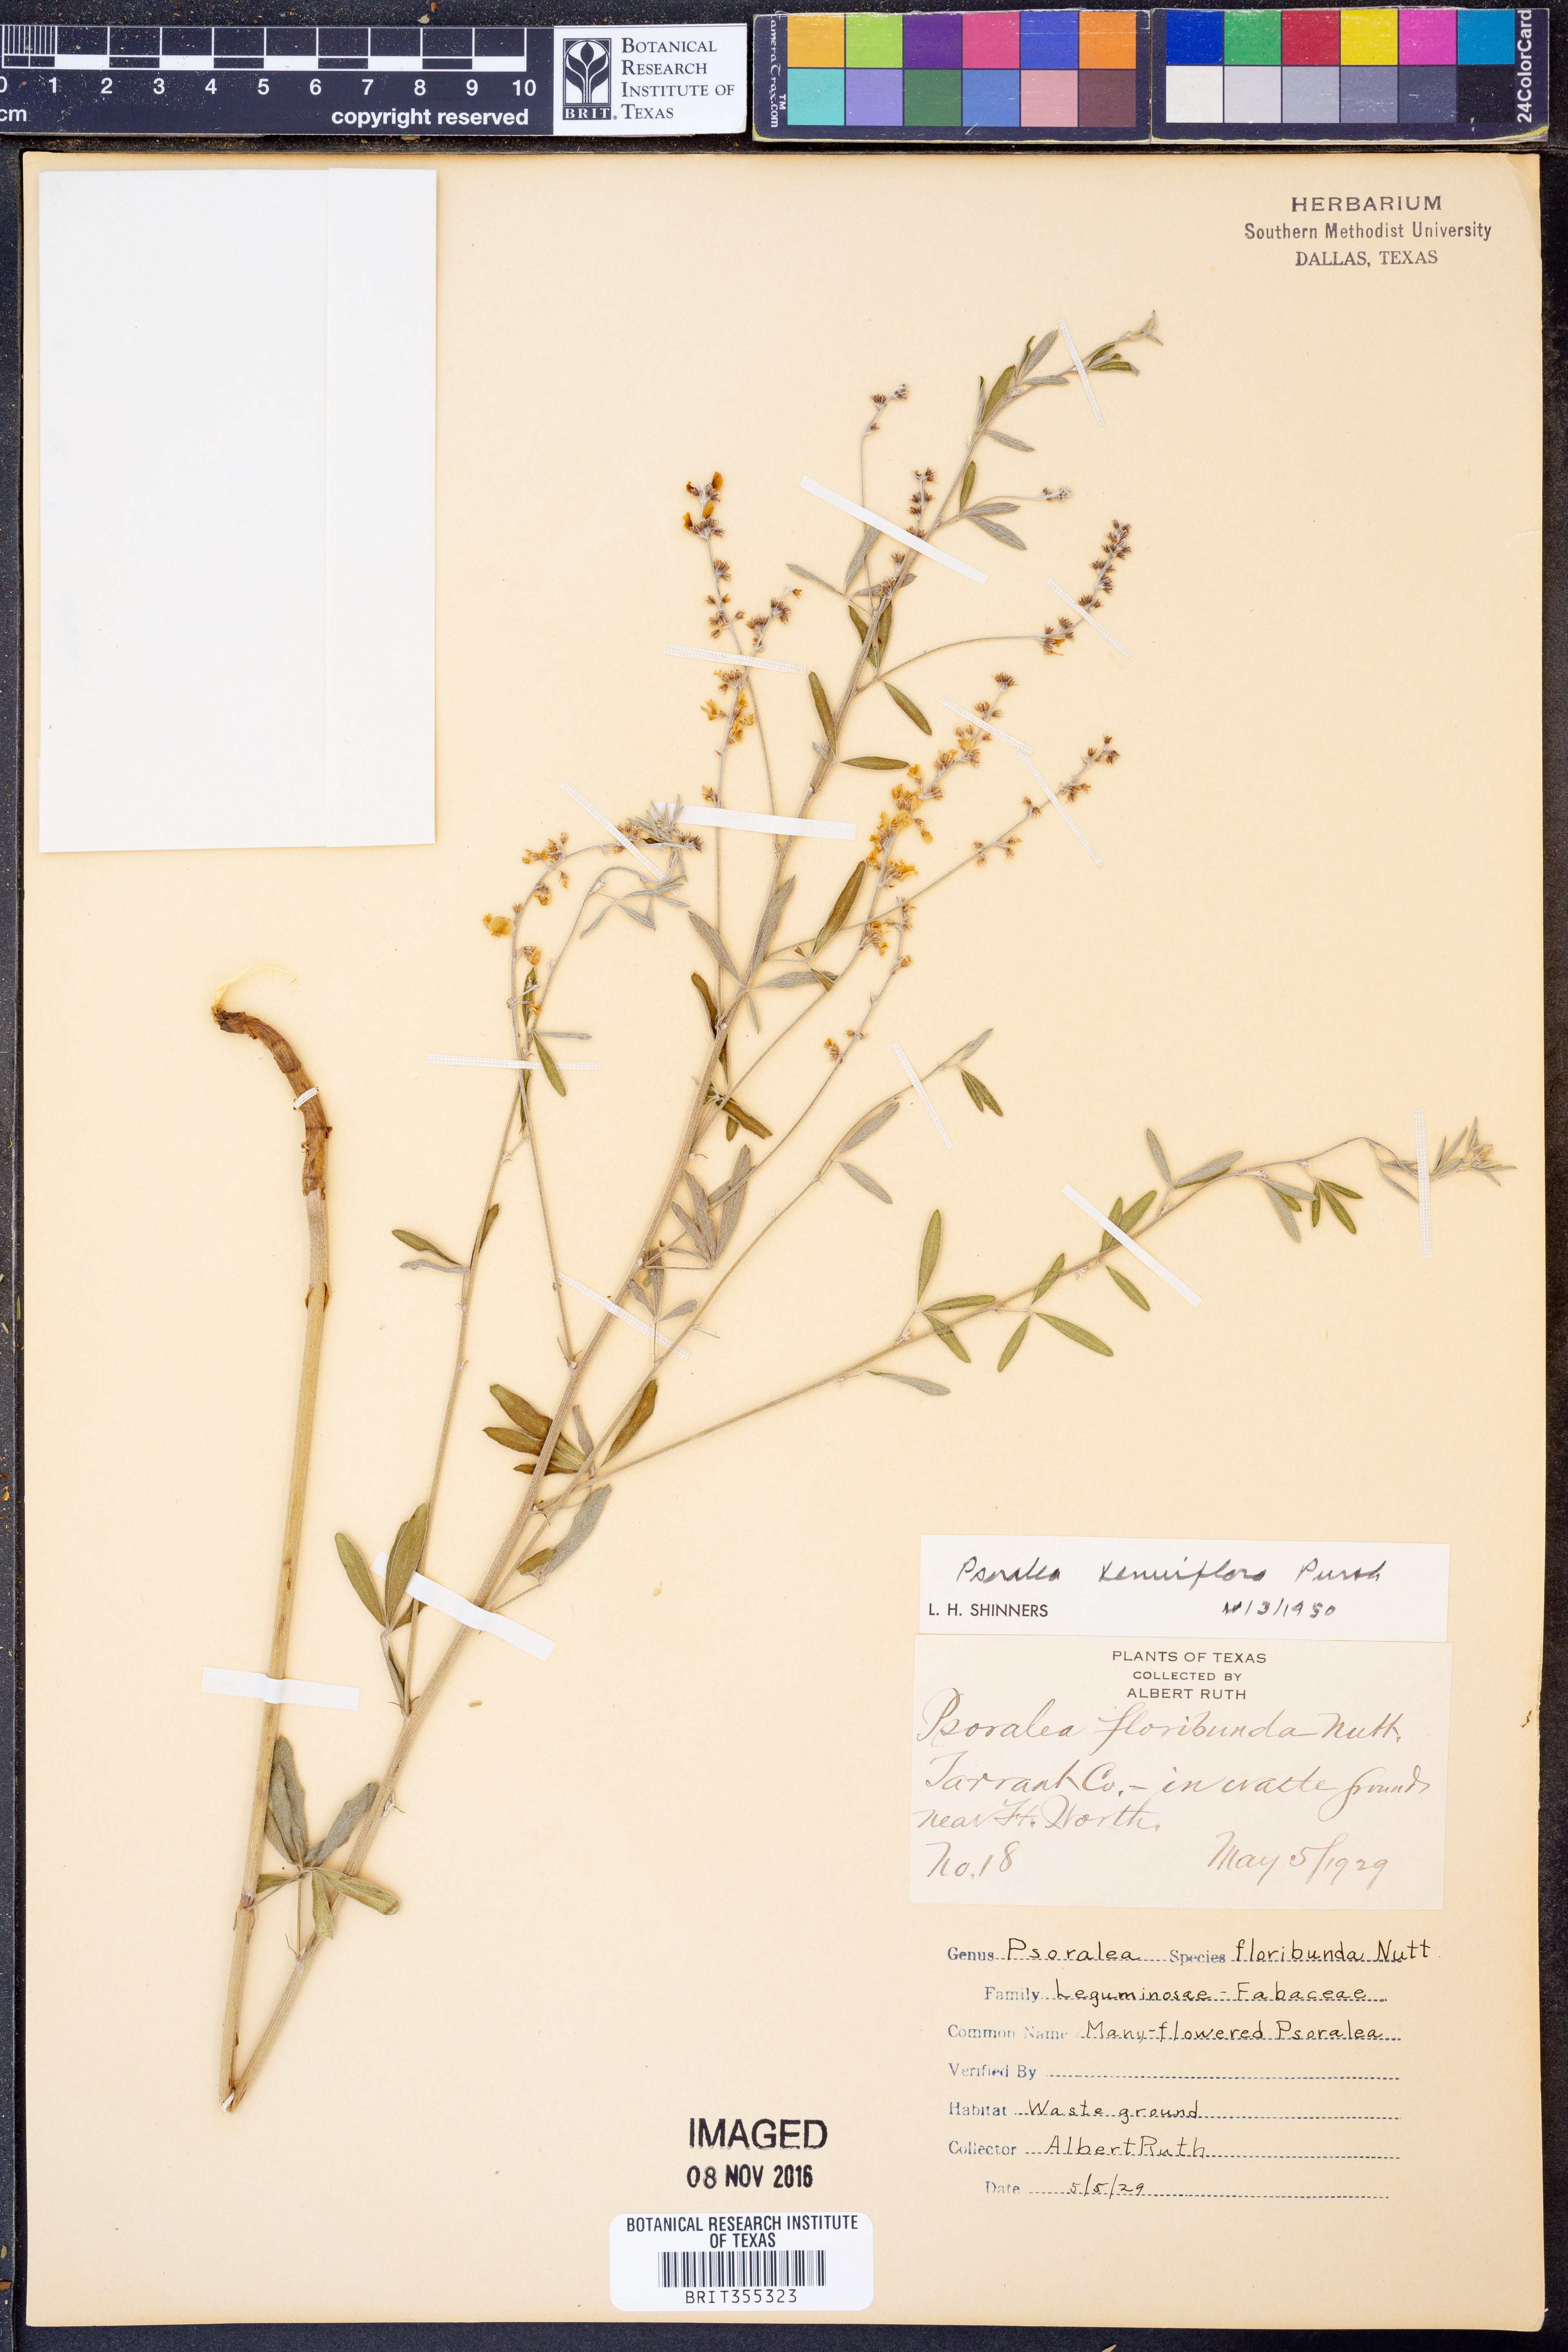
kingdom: Plantae
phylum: Tracheophyta
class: Magnoliopsida
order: Fabales
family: Fabaceae
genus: Pediomelum
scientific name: Pediomelum tenuiflorum
